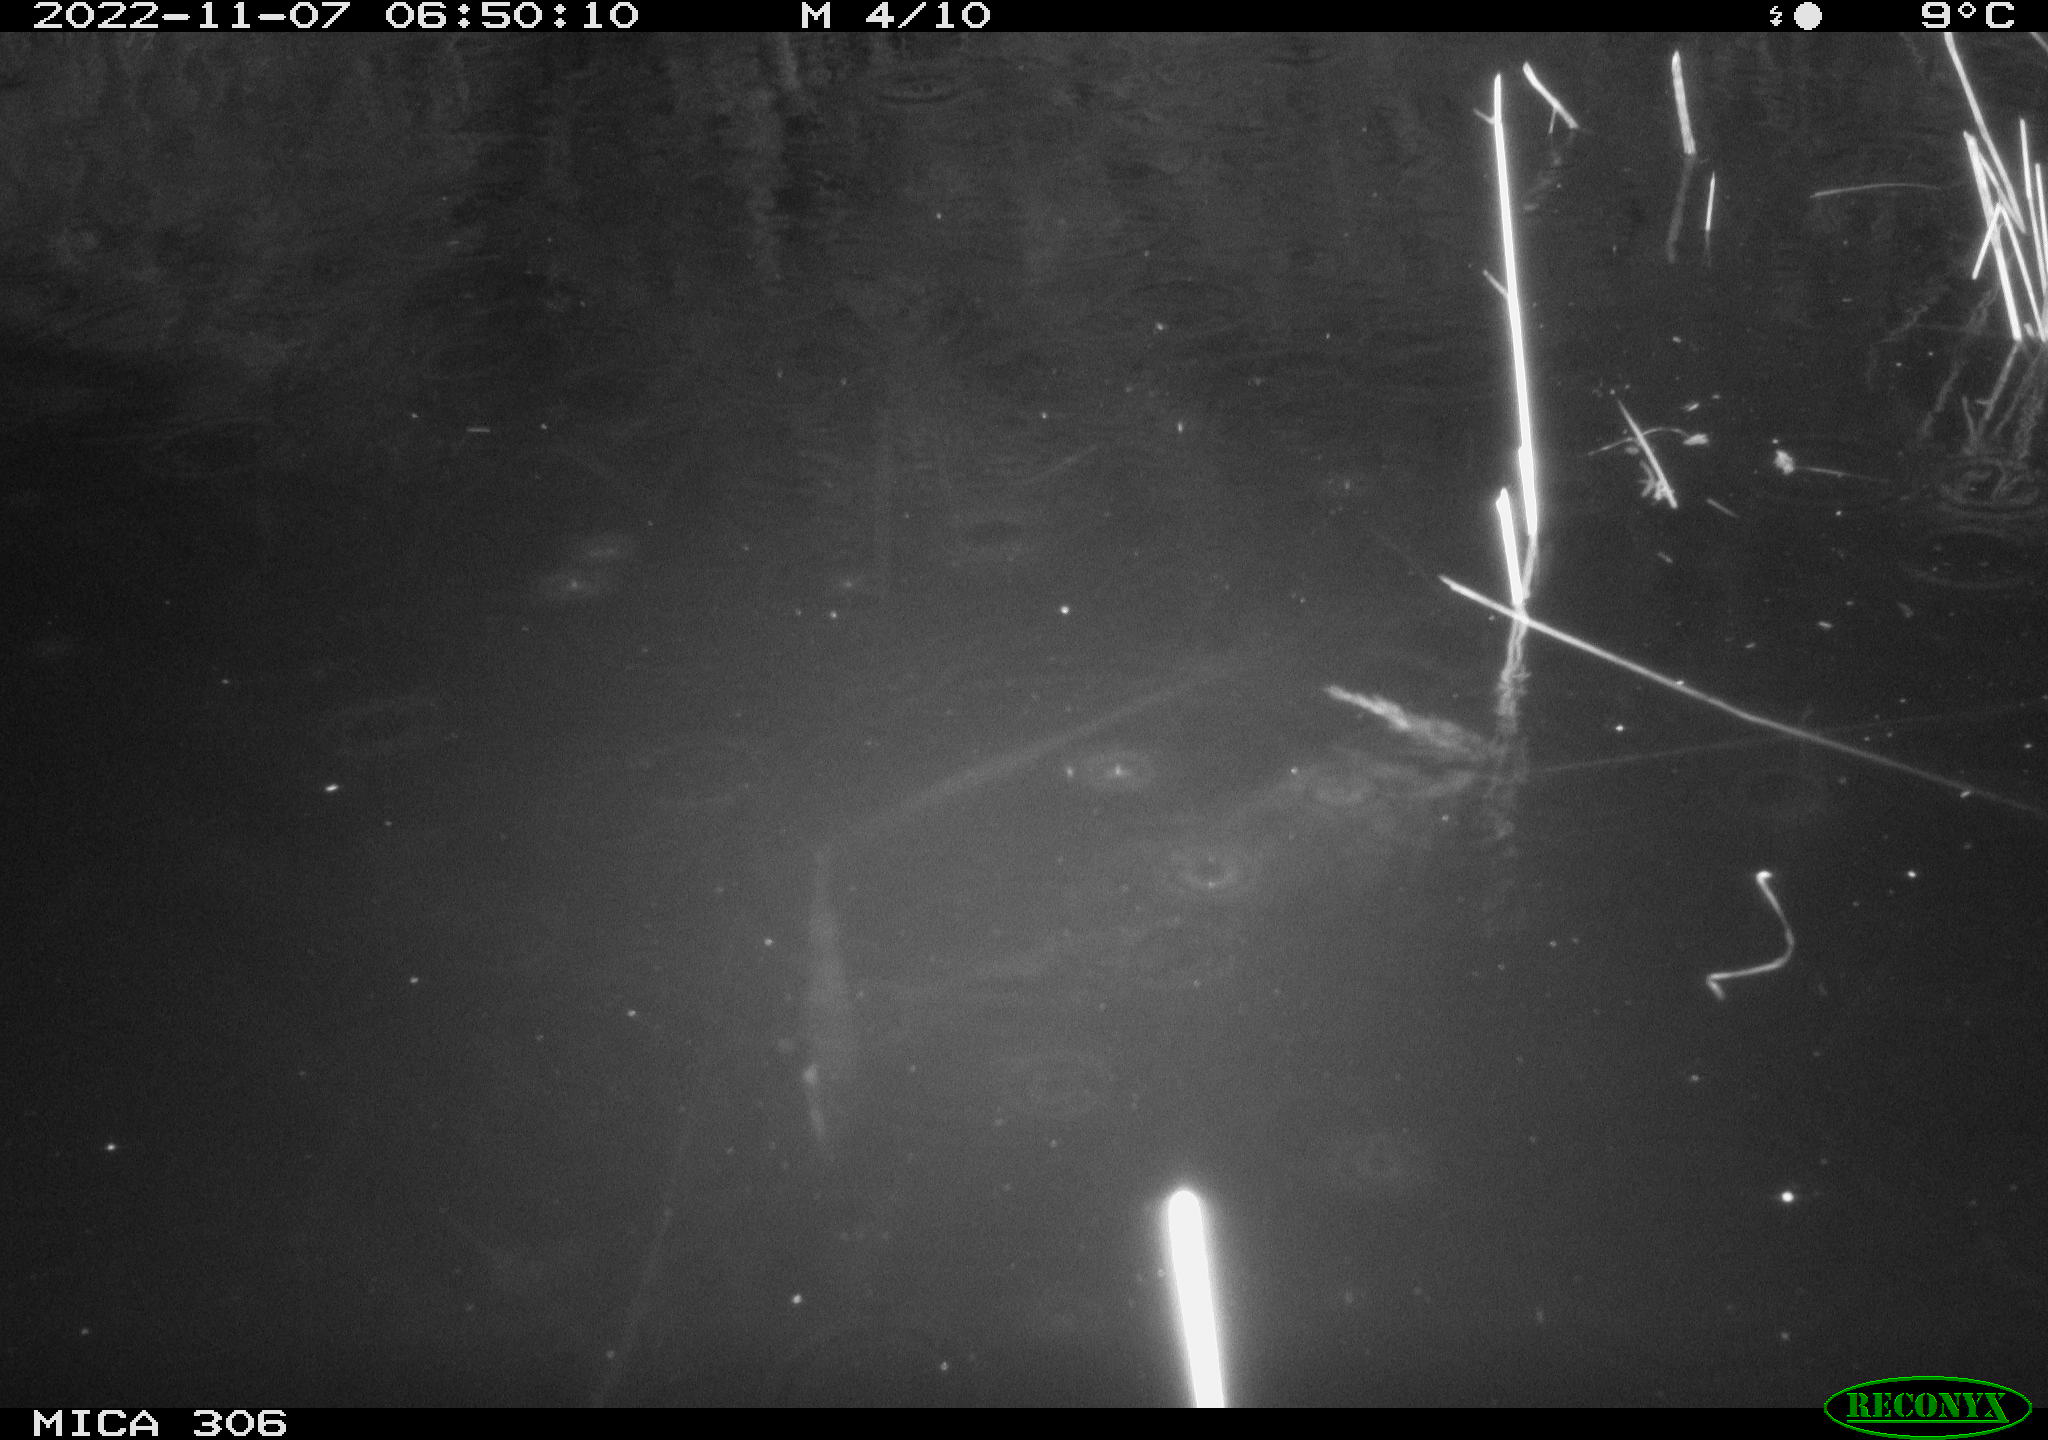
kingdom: Animalia
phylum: Chordata
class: Mammalia
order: Rodentia
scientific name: Rodentia
